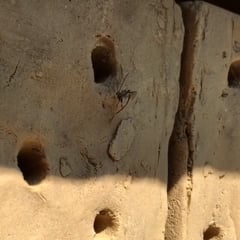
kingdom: Animalia
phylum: Arthropoda
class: Insecta
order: Hymenoptera
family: Ichneumonidae
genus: Perithous
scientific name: Perithous septemcinctorius
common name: Ichneumonid wasp
